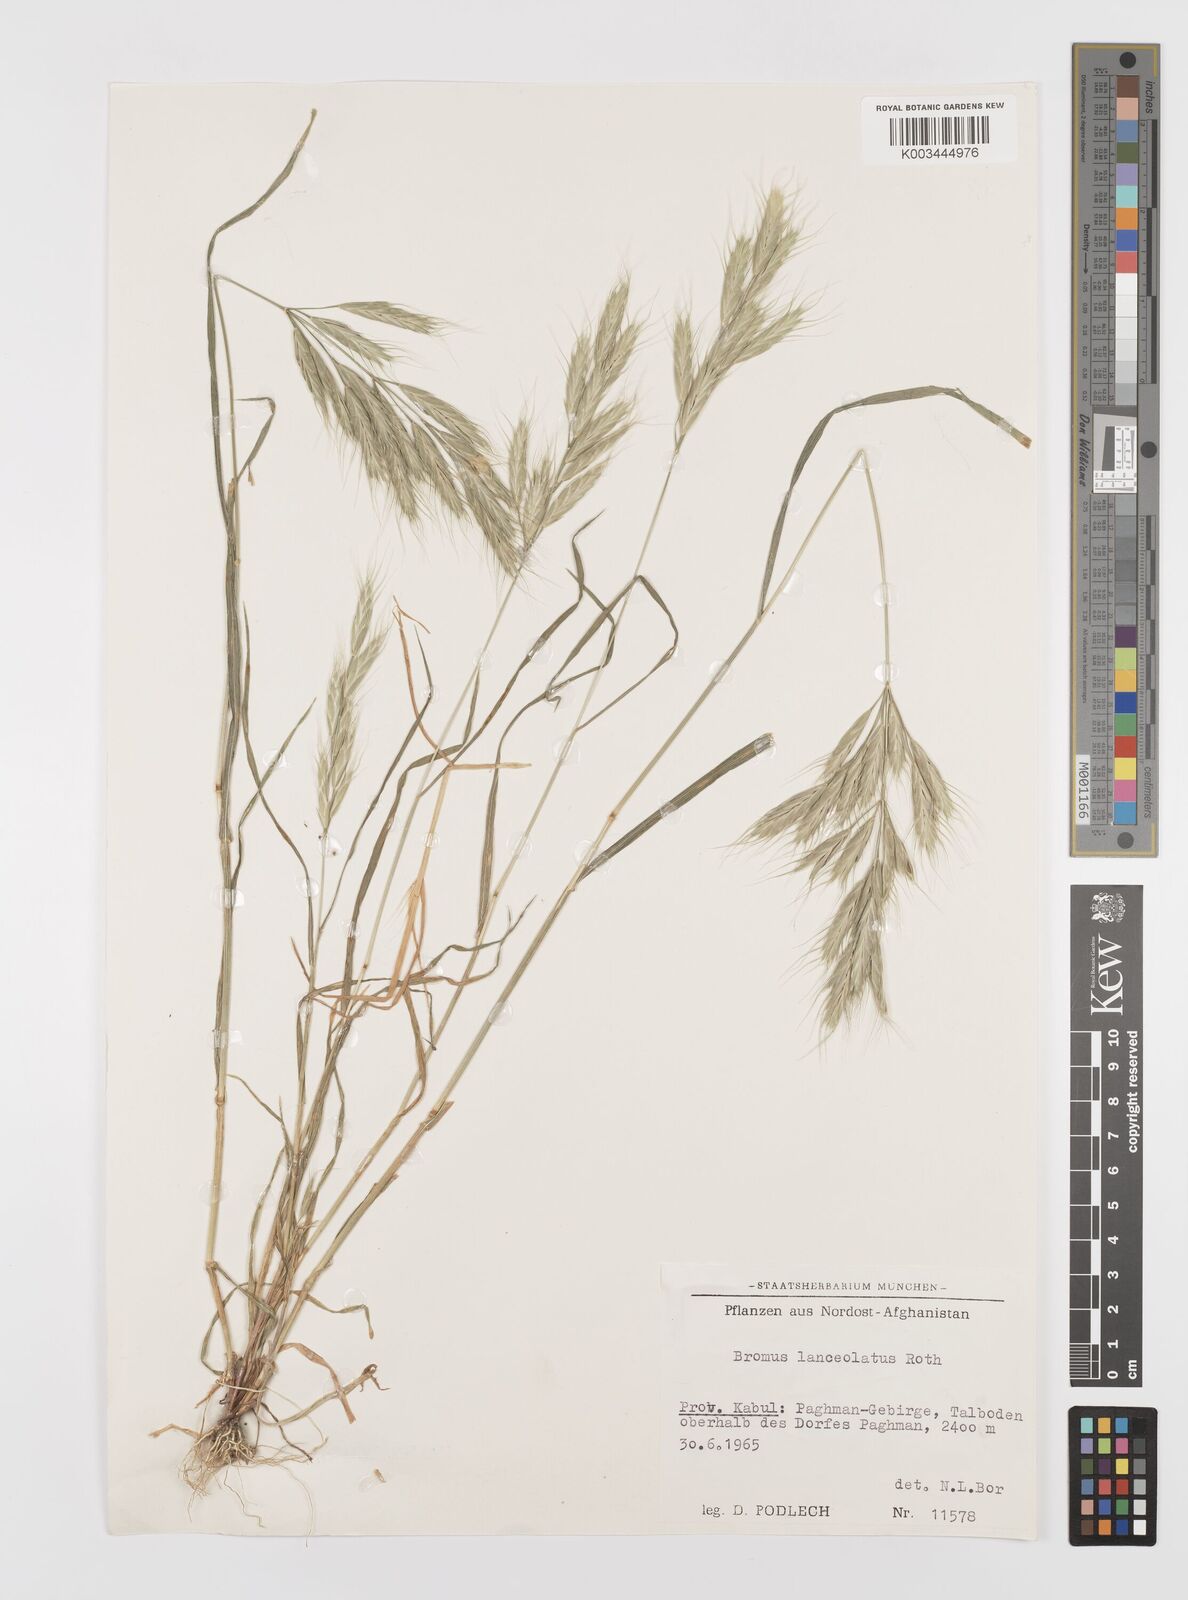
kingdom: Plantae
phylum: Tracheophyta
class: Liliopsida
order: Poales
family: Poaceae
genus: Bromus
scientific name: Bromus lanceolatus
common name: Mediterranean brome
